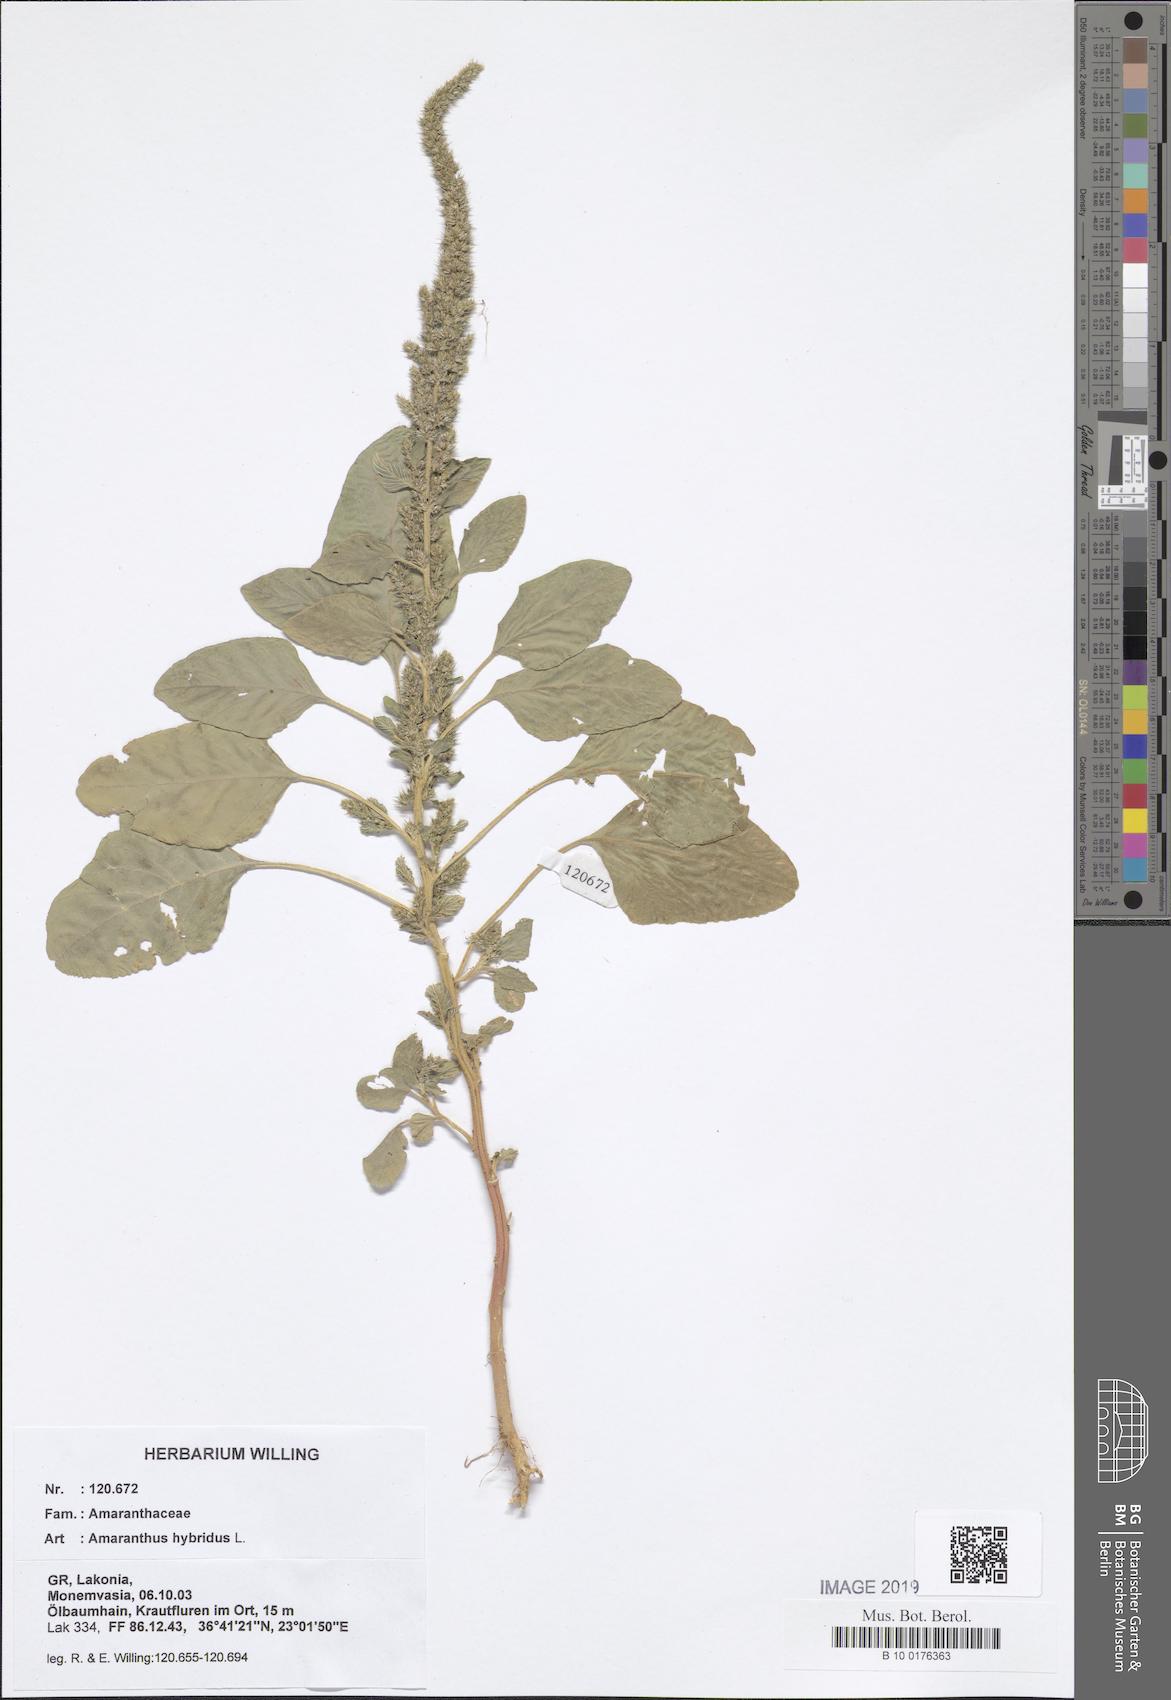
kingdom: Plantae
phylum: Tracheophyta
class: Magnoliopsida
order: Caryophyllales
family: Amaranthaceae
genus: Amaranthus
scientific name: Amaranthus hybridus
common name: Green amaranth
